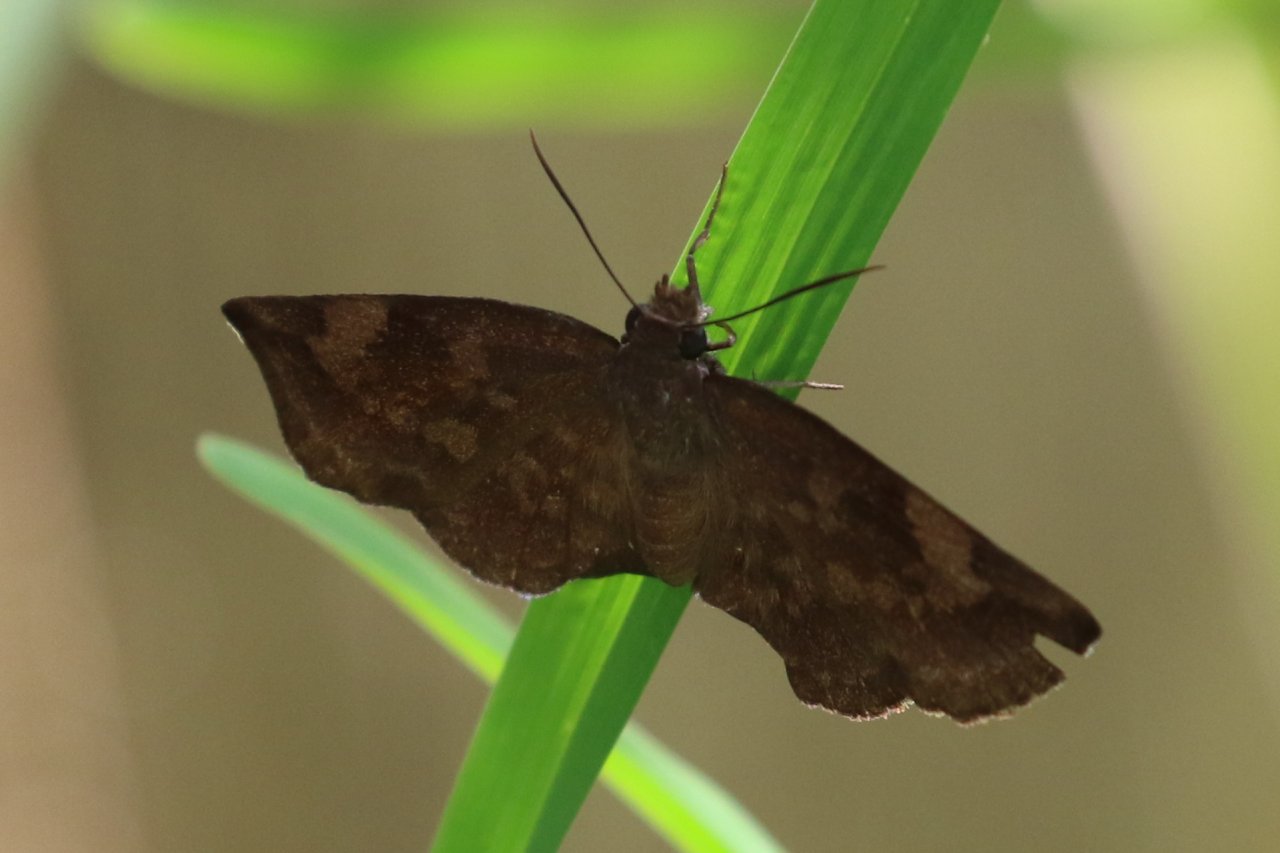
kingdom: Animalia
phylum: Arthropoda
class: Insecta
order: Lepidoptera
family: Hesperiidae
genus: Achlyodes
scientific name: Achlyodes thraso
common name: Sickle-winged Skipper
